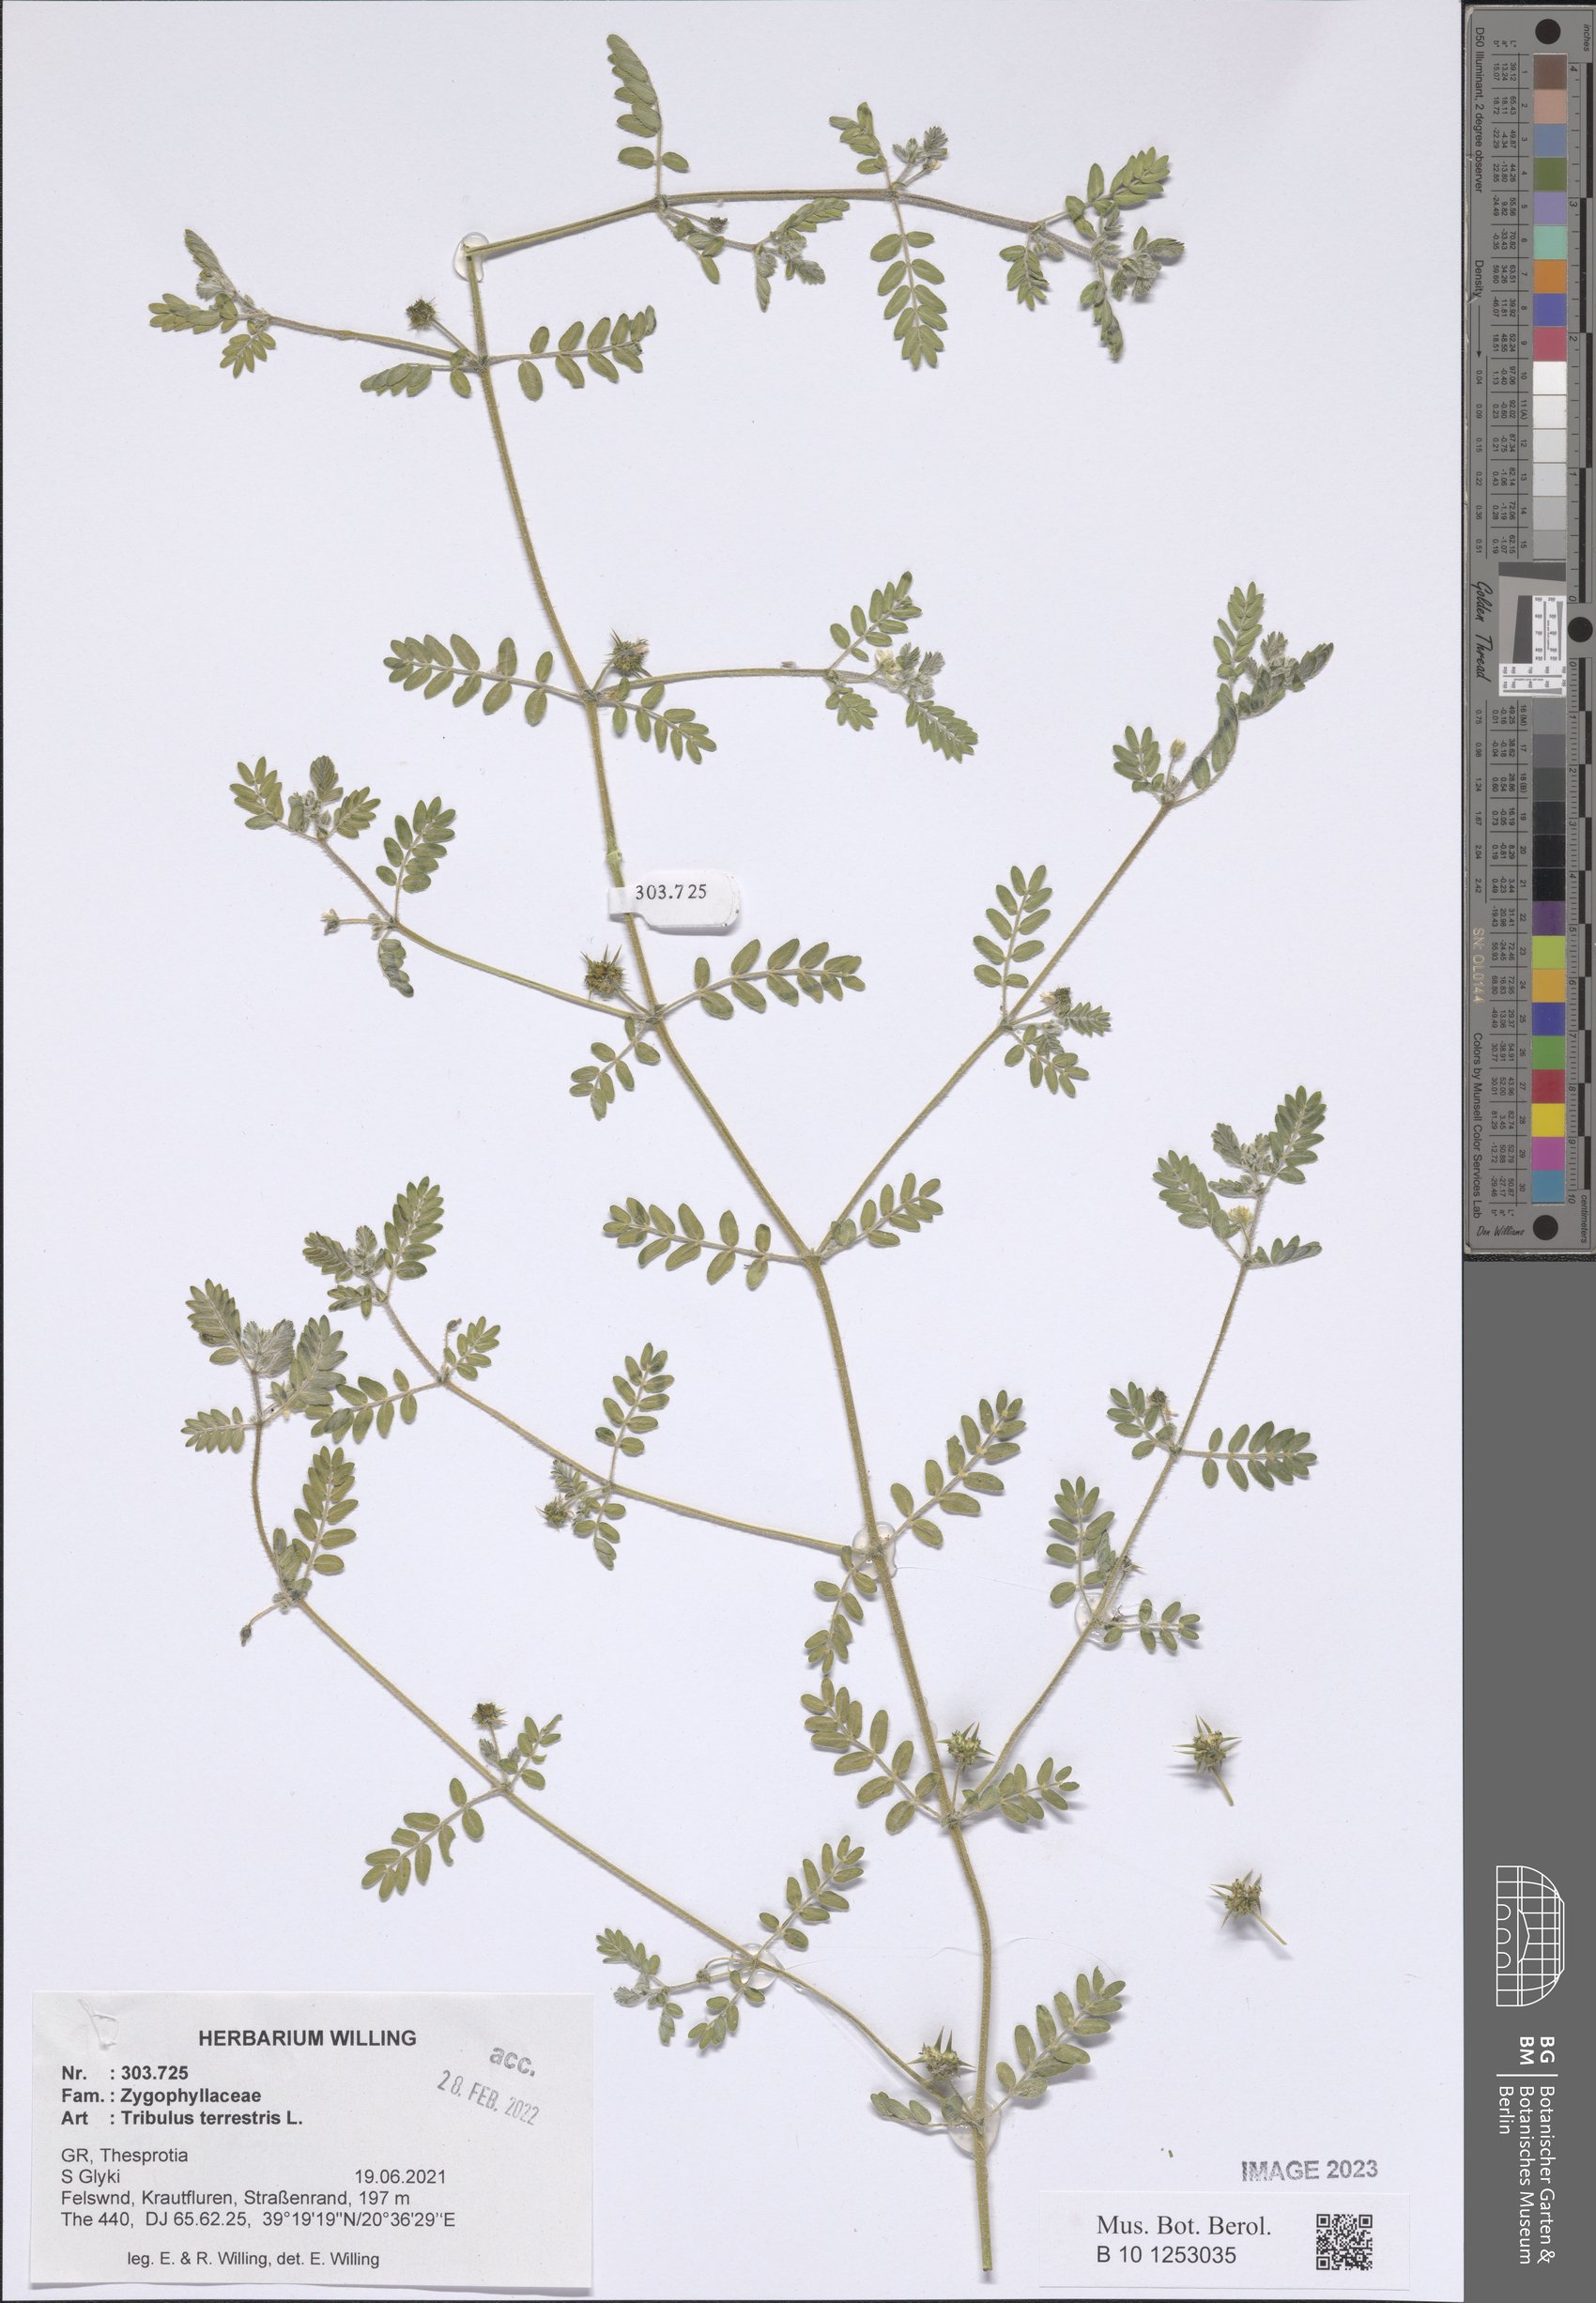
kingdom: Plantae
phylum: Tracheophyta
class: Magnoliopsida
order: Zygophyllales
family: Zygophyllaceae
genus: Tribulus
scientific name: Tribulus terrestris
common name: Puncturevine
